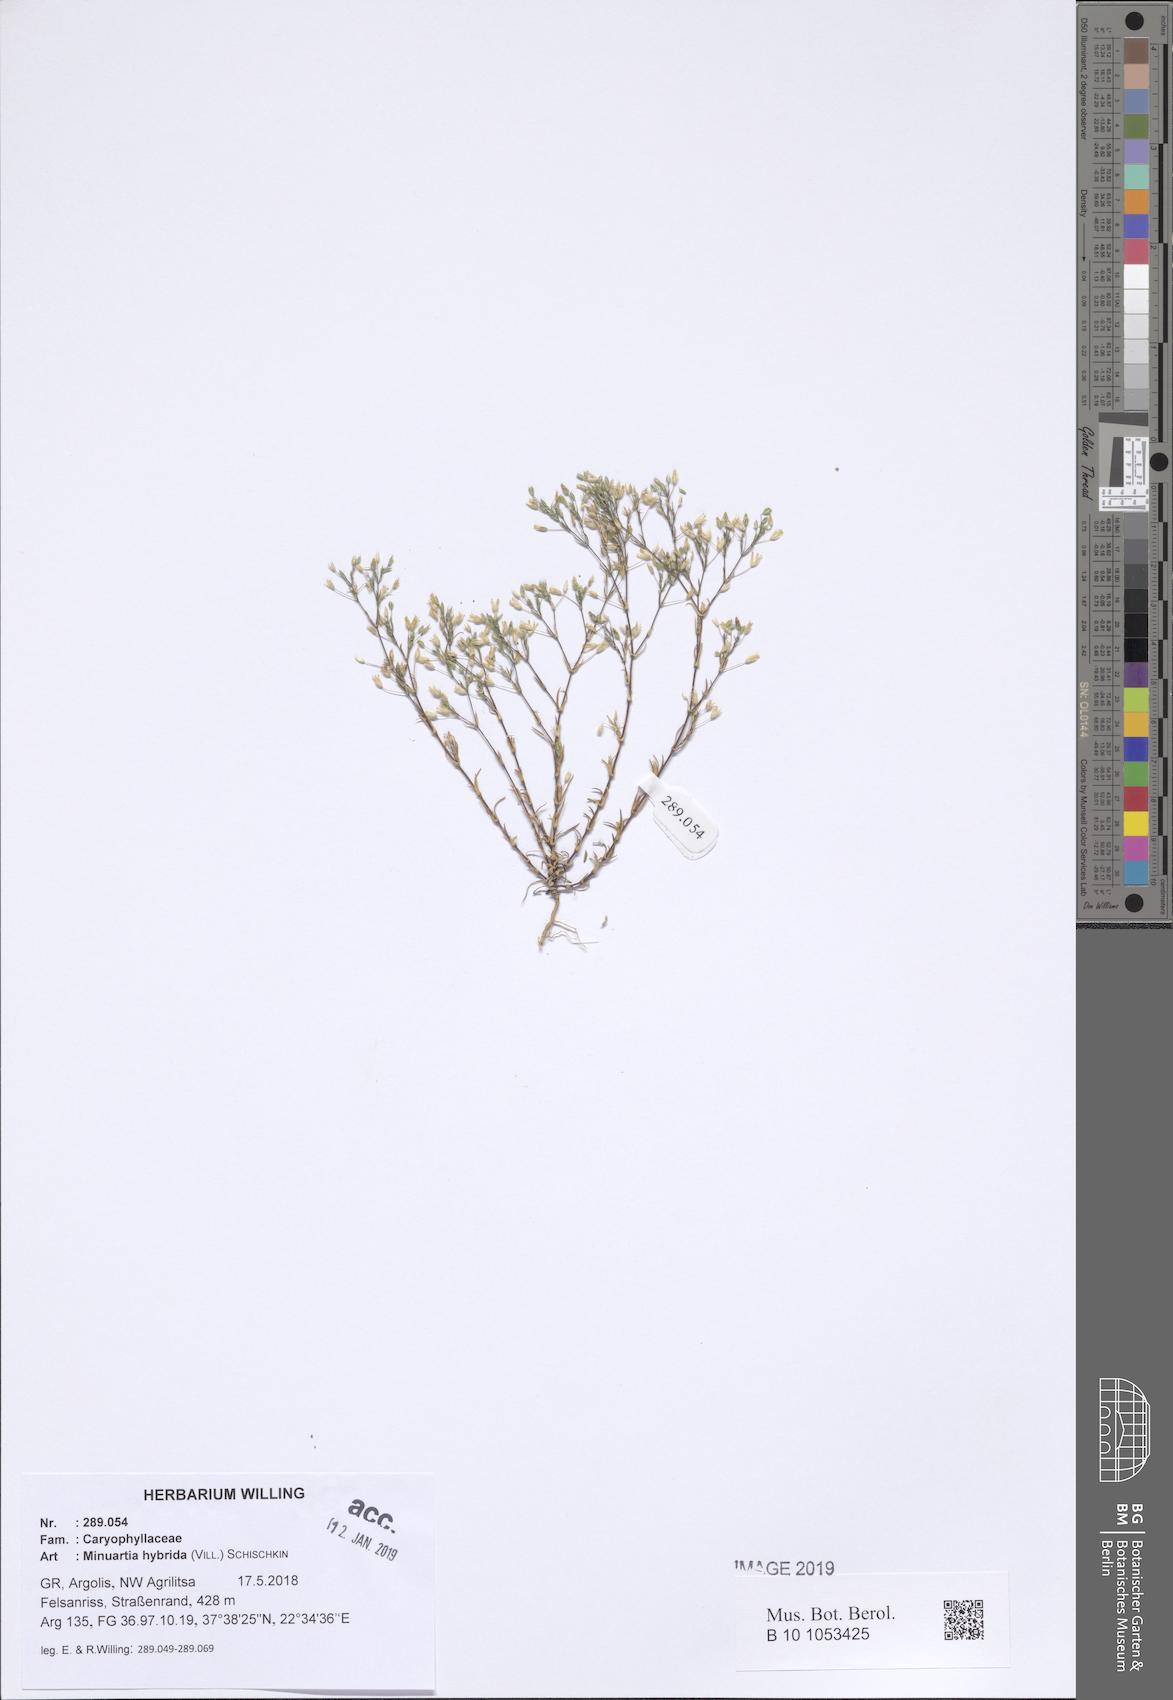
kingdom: Plantae
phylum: Tracheophyta
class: Magnoliopsida
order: Caryophyllales
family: Caryophyllaceae
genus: Sabulina
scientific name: Sabulina tenuifolia
